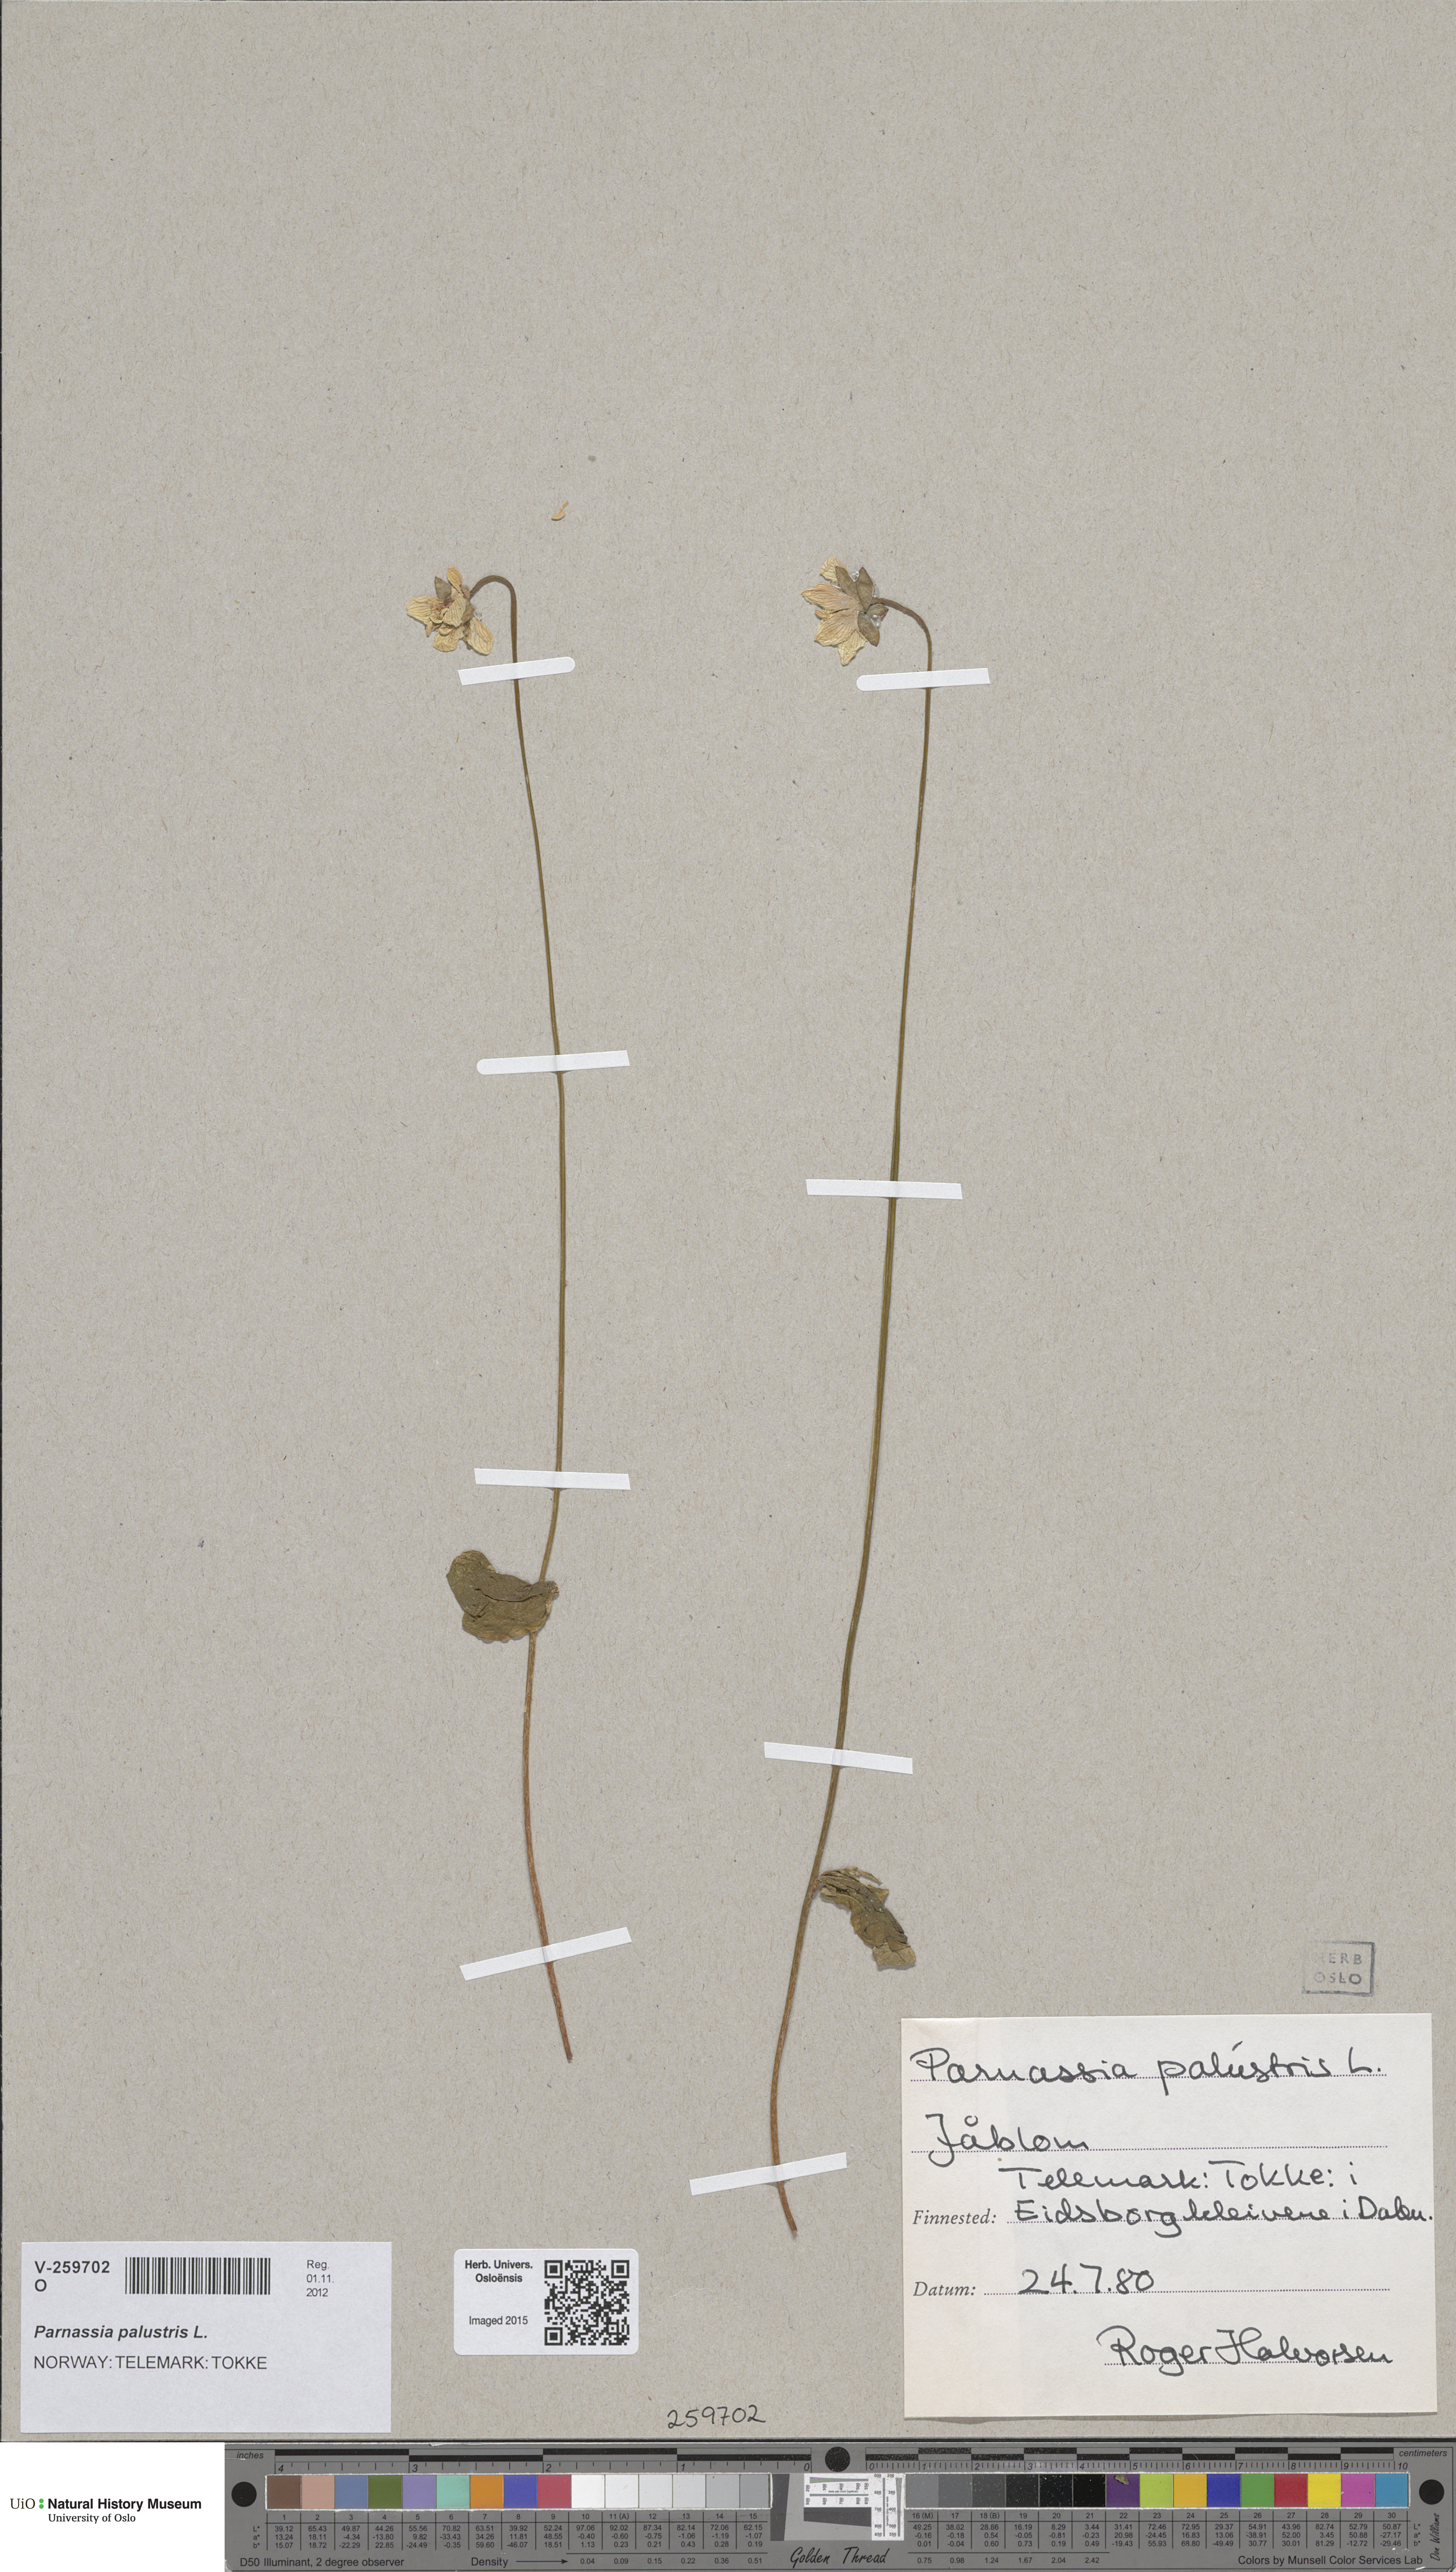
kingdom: Plantae
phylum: Tracheophyta
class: Magnoliopsida
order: Celastrales
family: Parnassiaceae
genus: Parnassia
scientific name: Parnassia palustris
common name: Grass-of-parnassus
